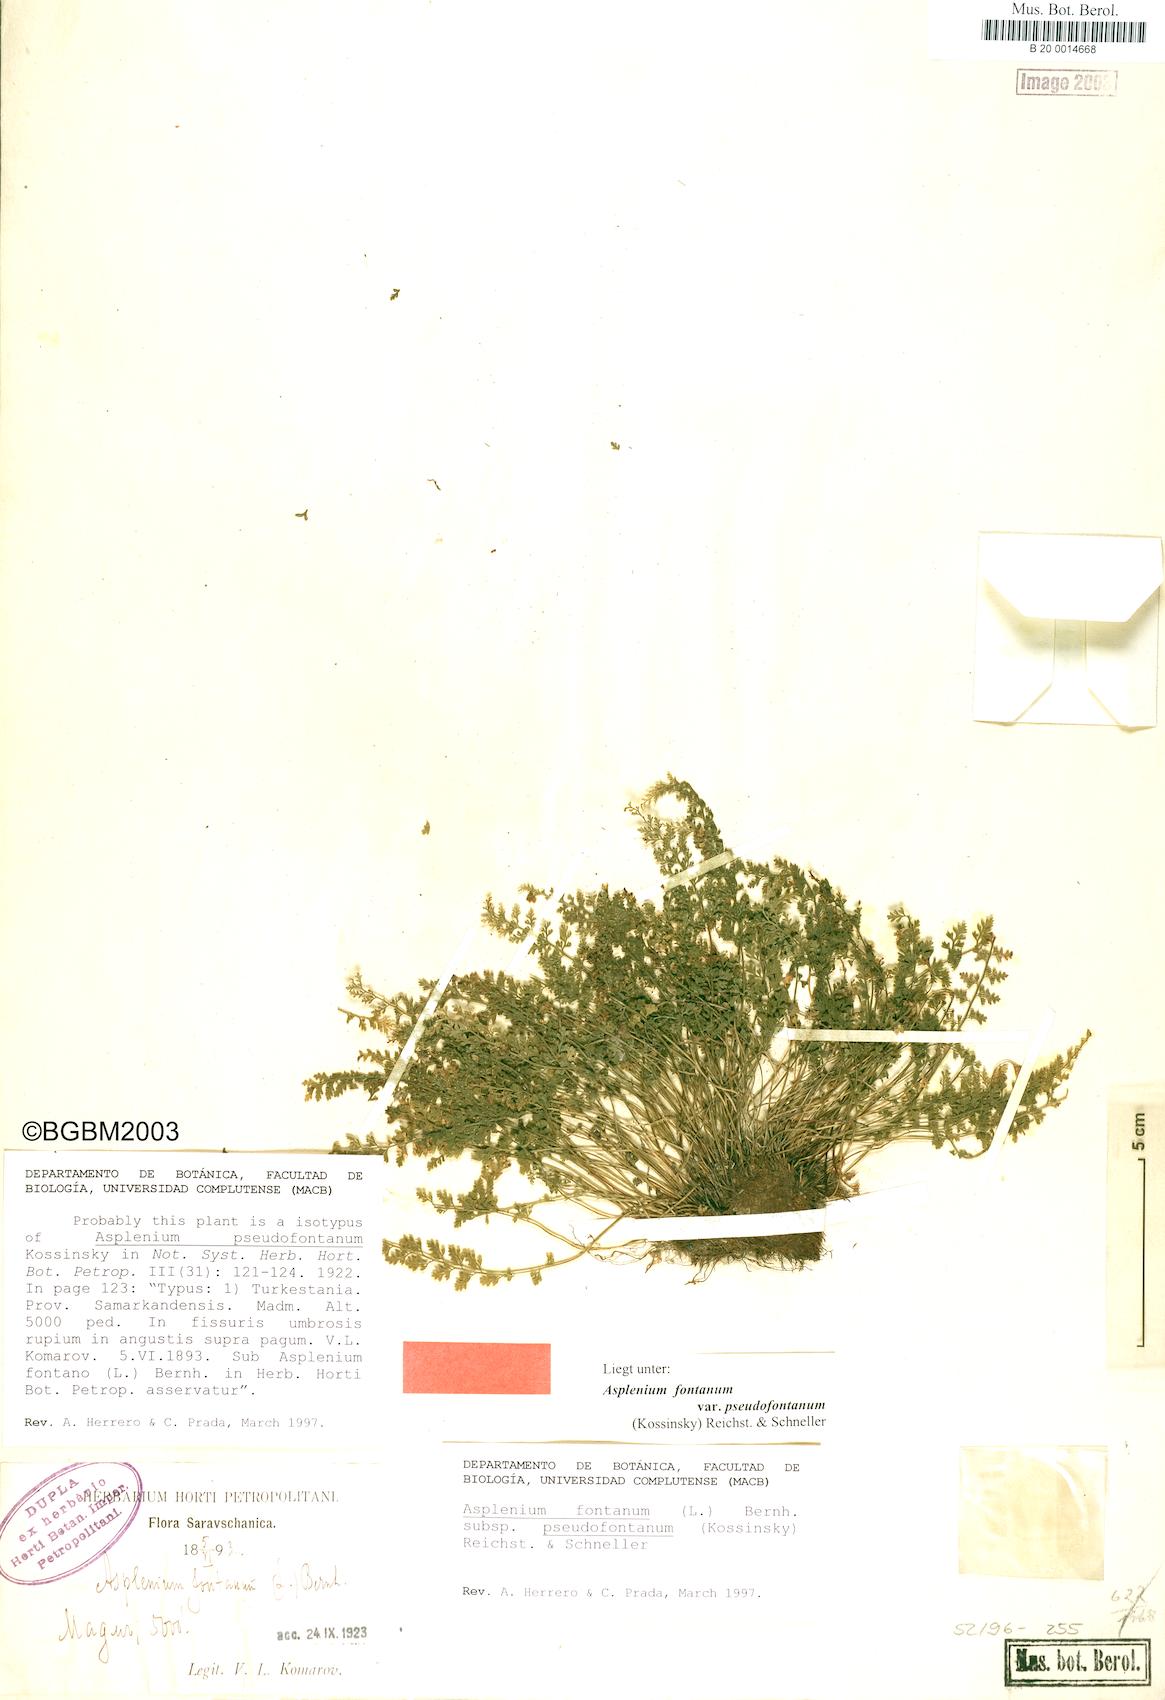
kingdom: Plantae
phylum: Tracheophyta
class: Polypodiopsida
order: Polypodiales
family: Aspleniaceae
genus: Asplenium
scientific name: Asplenium fontanum
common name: Fountain spleenwort
